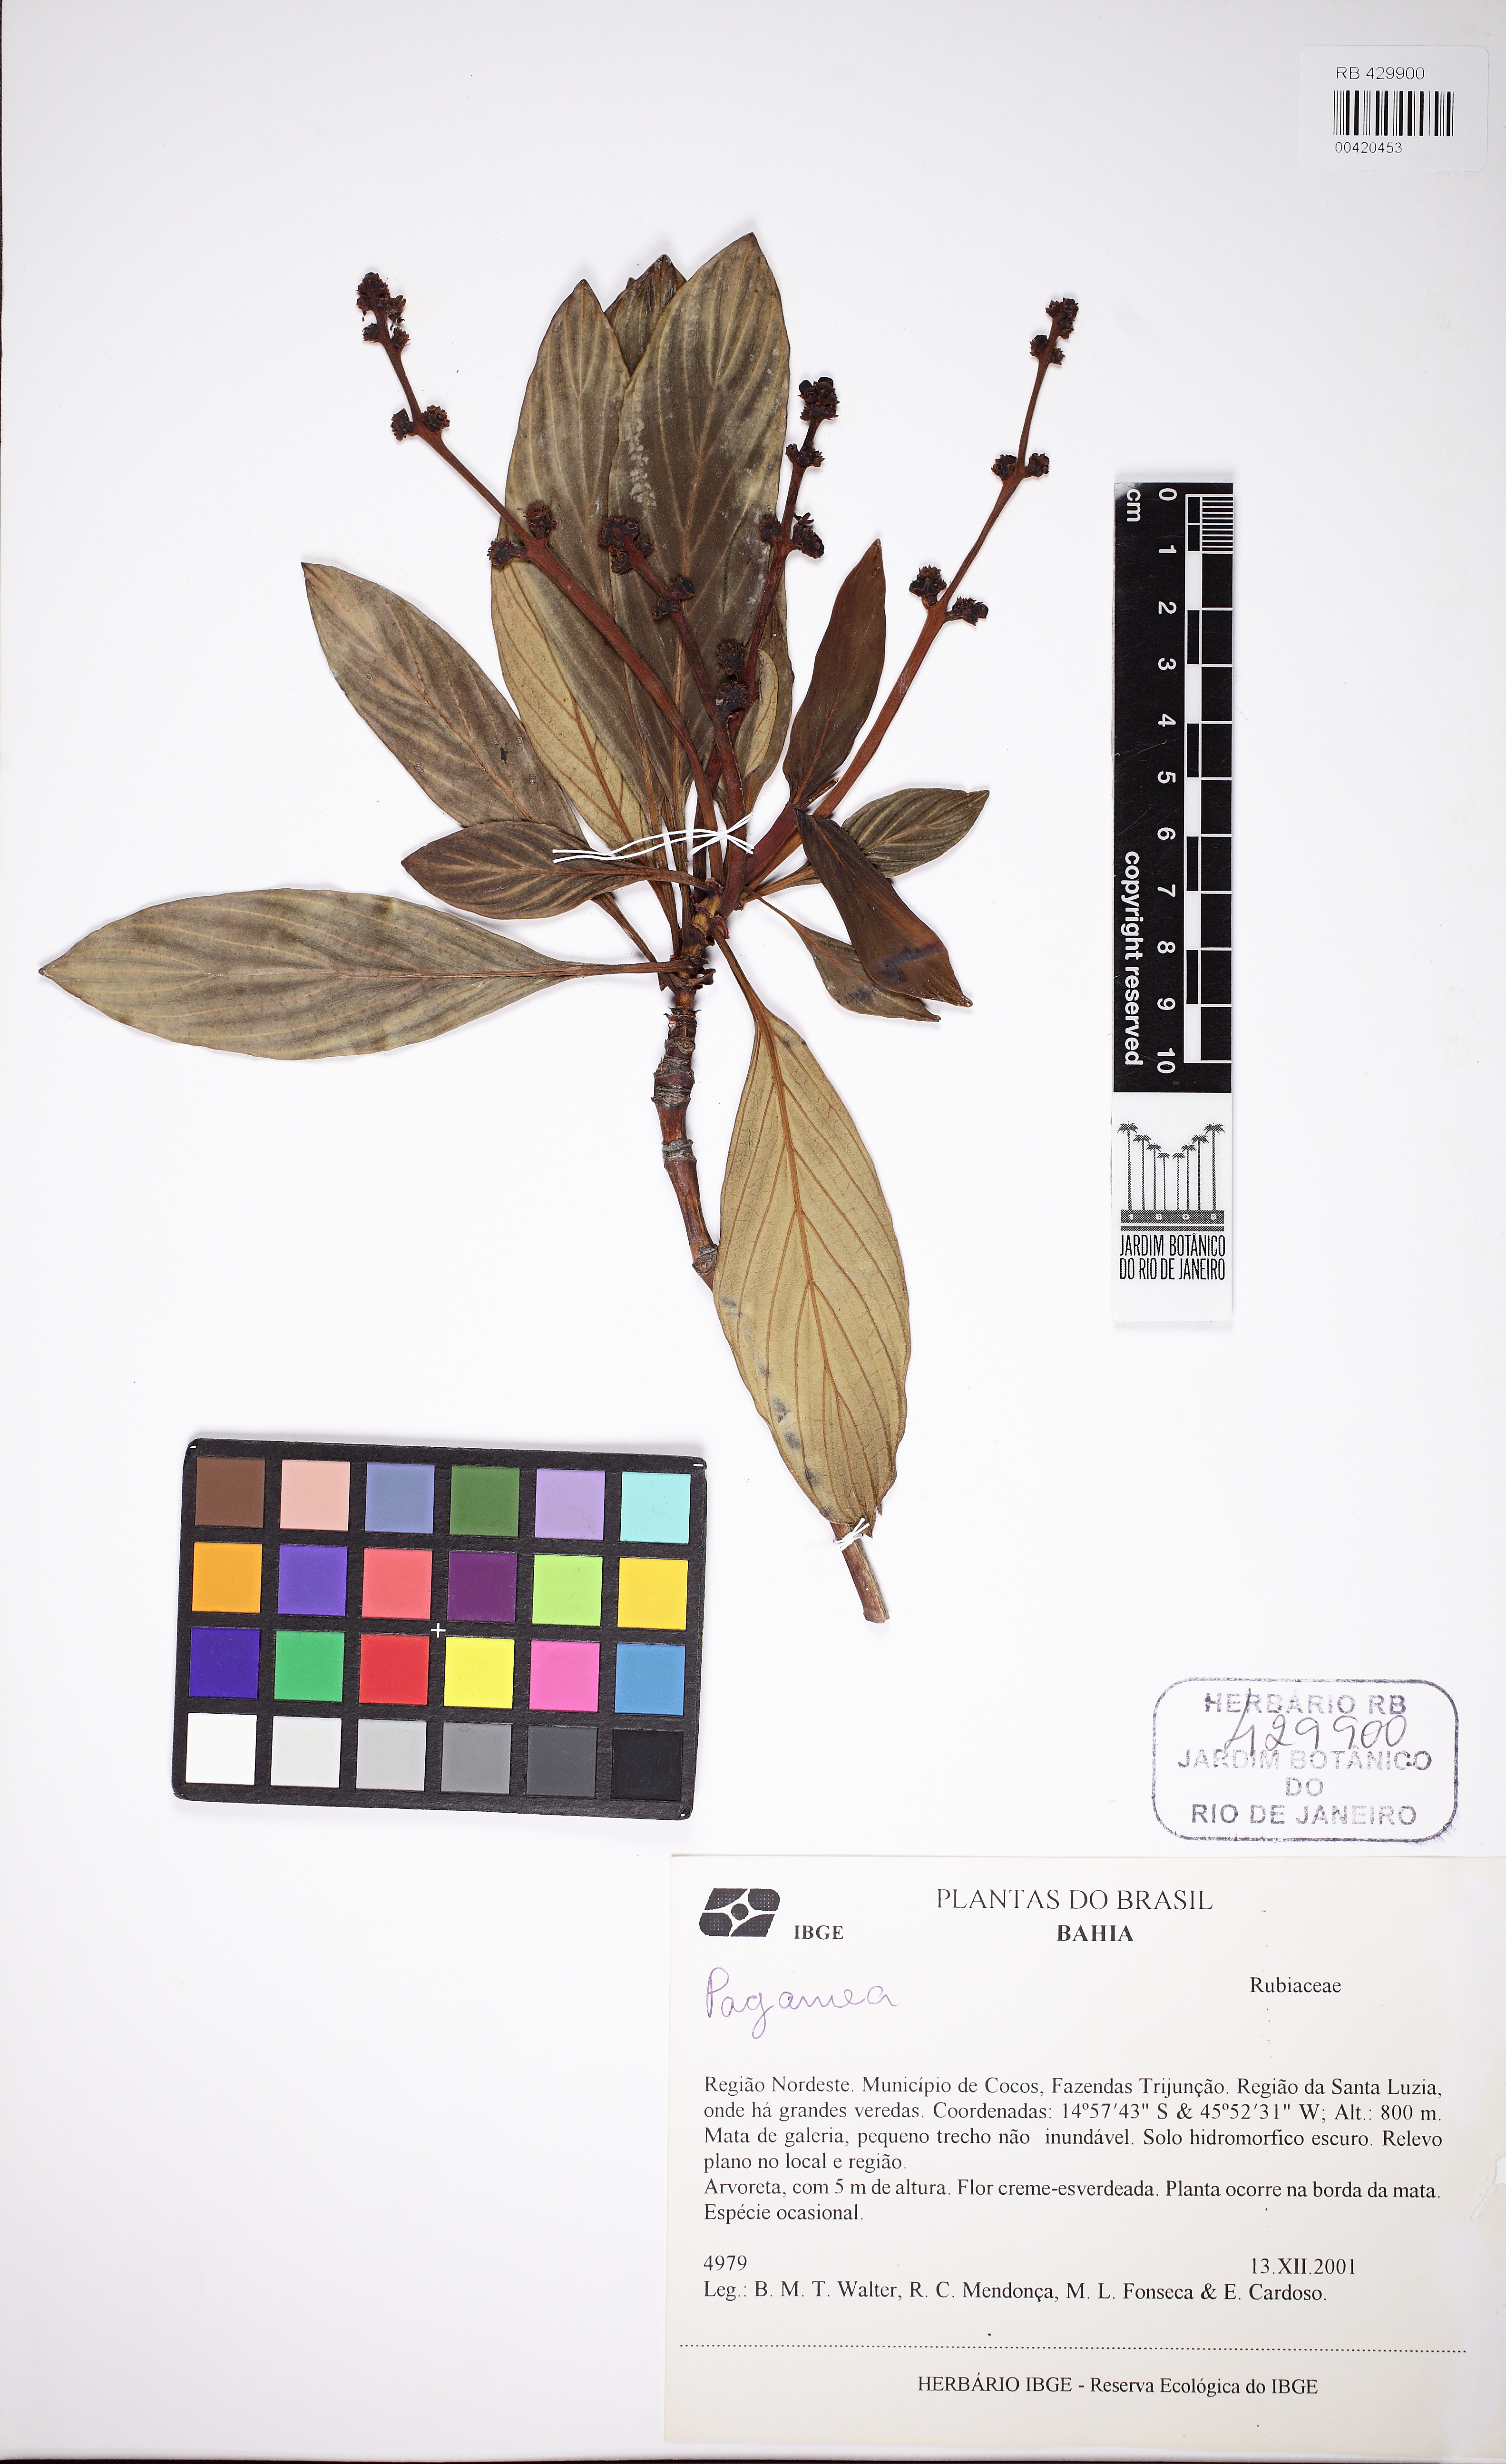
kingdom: Plantae
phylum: Tracheophyta
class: Magnoliopsida
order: Gentianales
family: Rubiaceae
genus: Pagamea
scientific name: Pagamea
